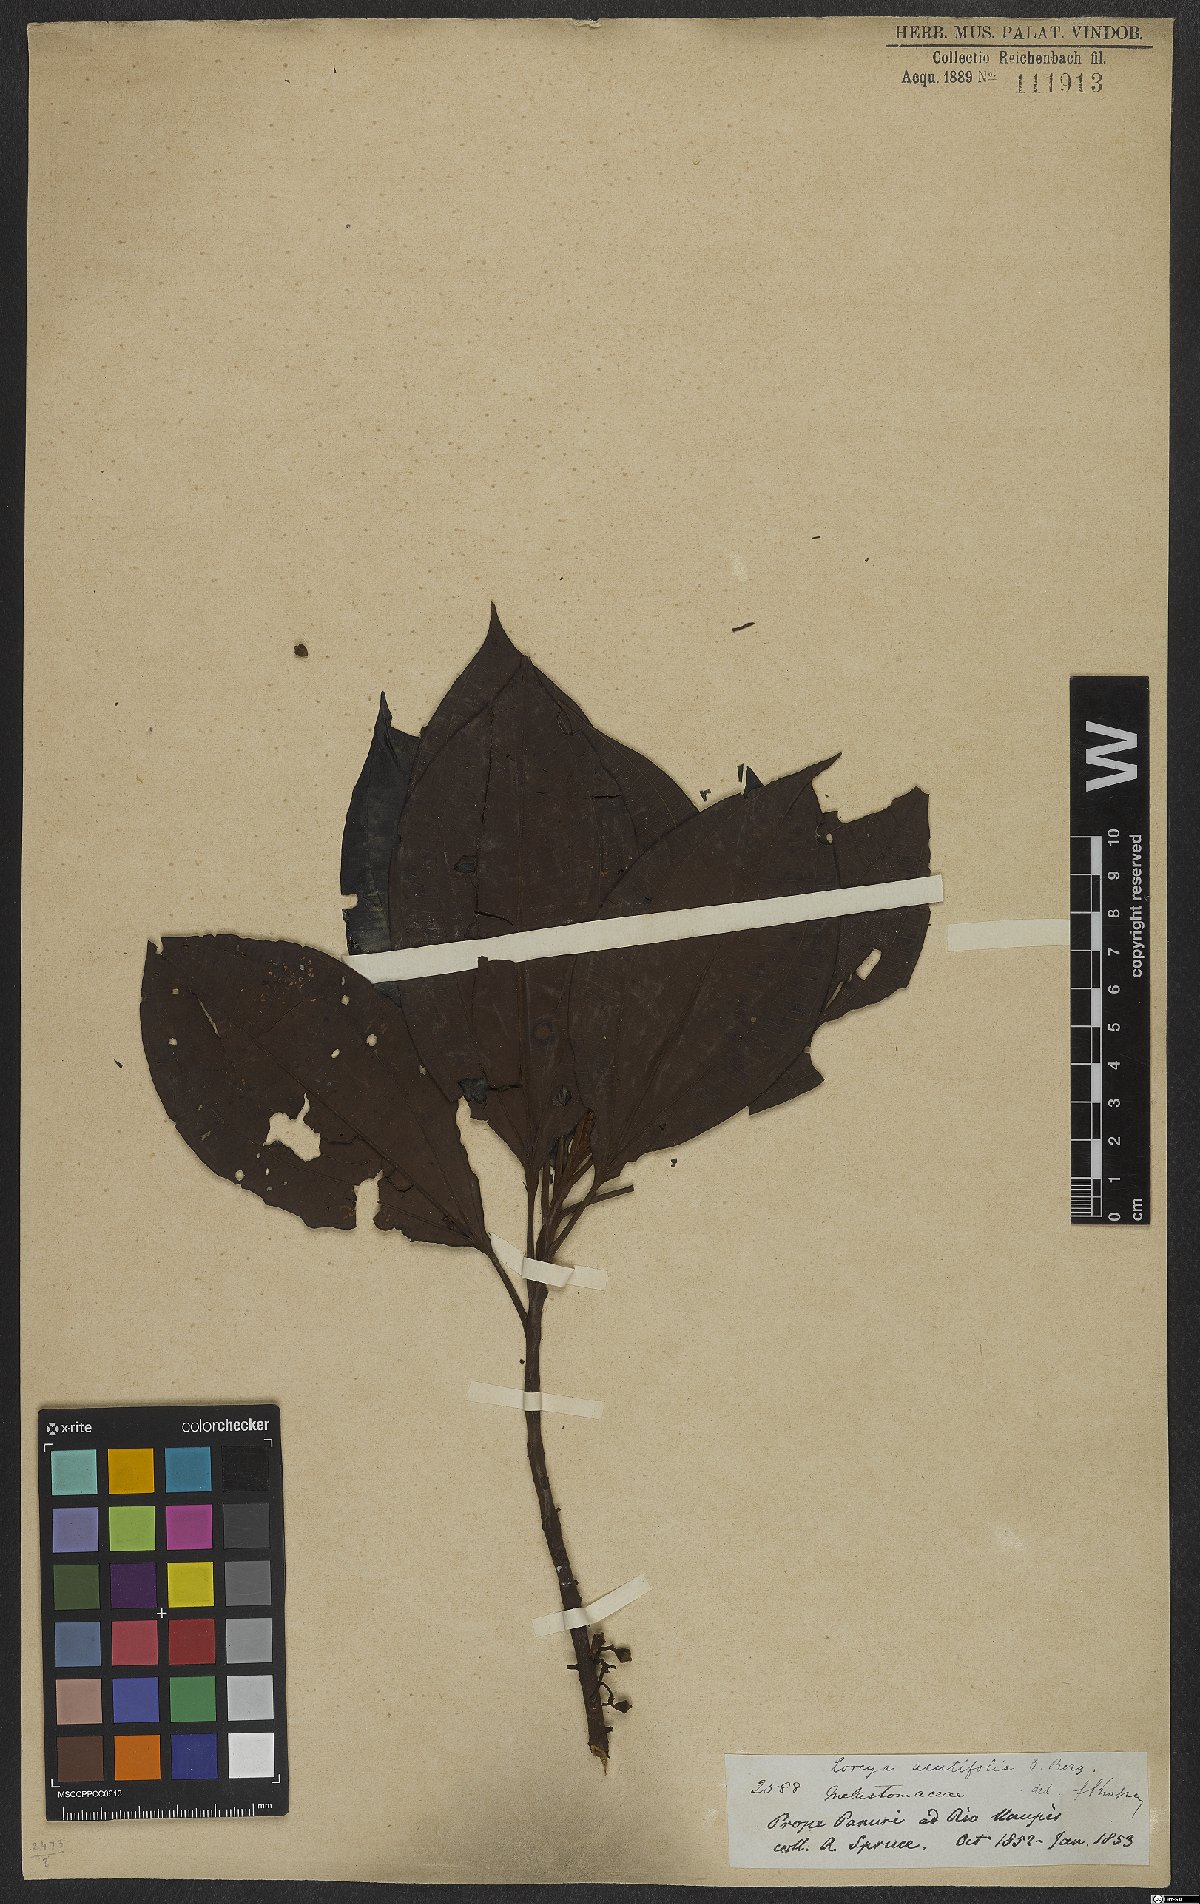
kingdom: Plantae
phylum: Tracheophyta
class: Magnoliopsida
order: Myrtales
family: Melastomataceae
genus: Bellucia
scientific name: Bellucia arborescens
